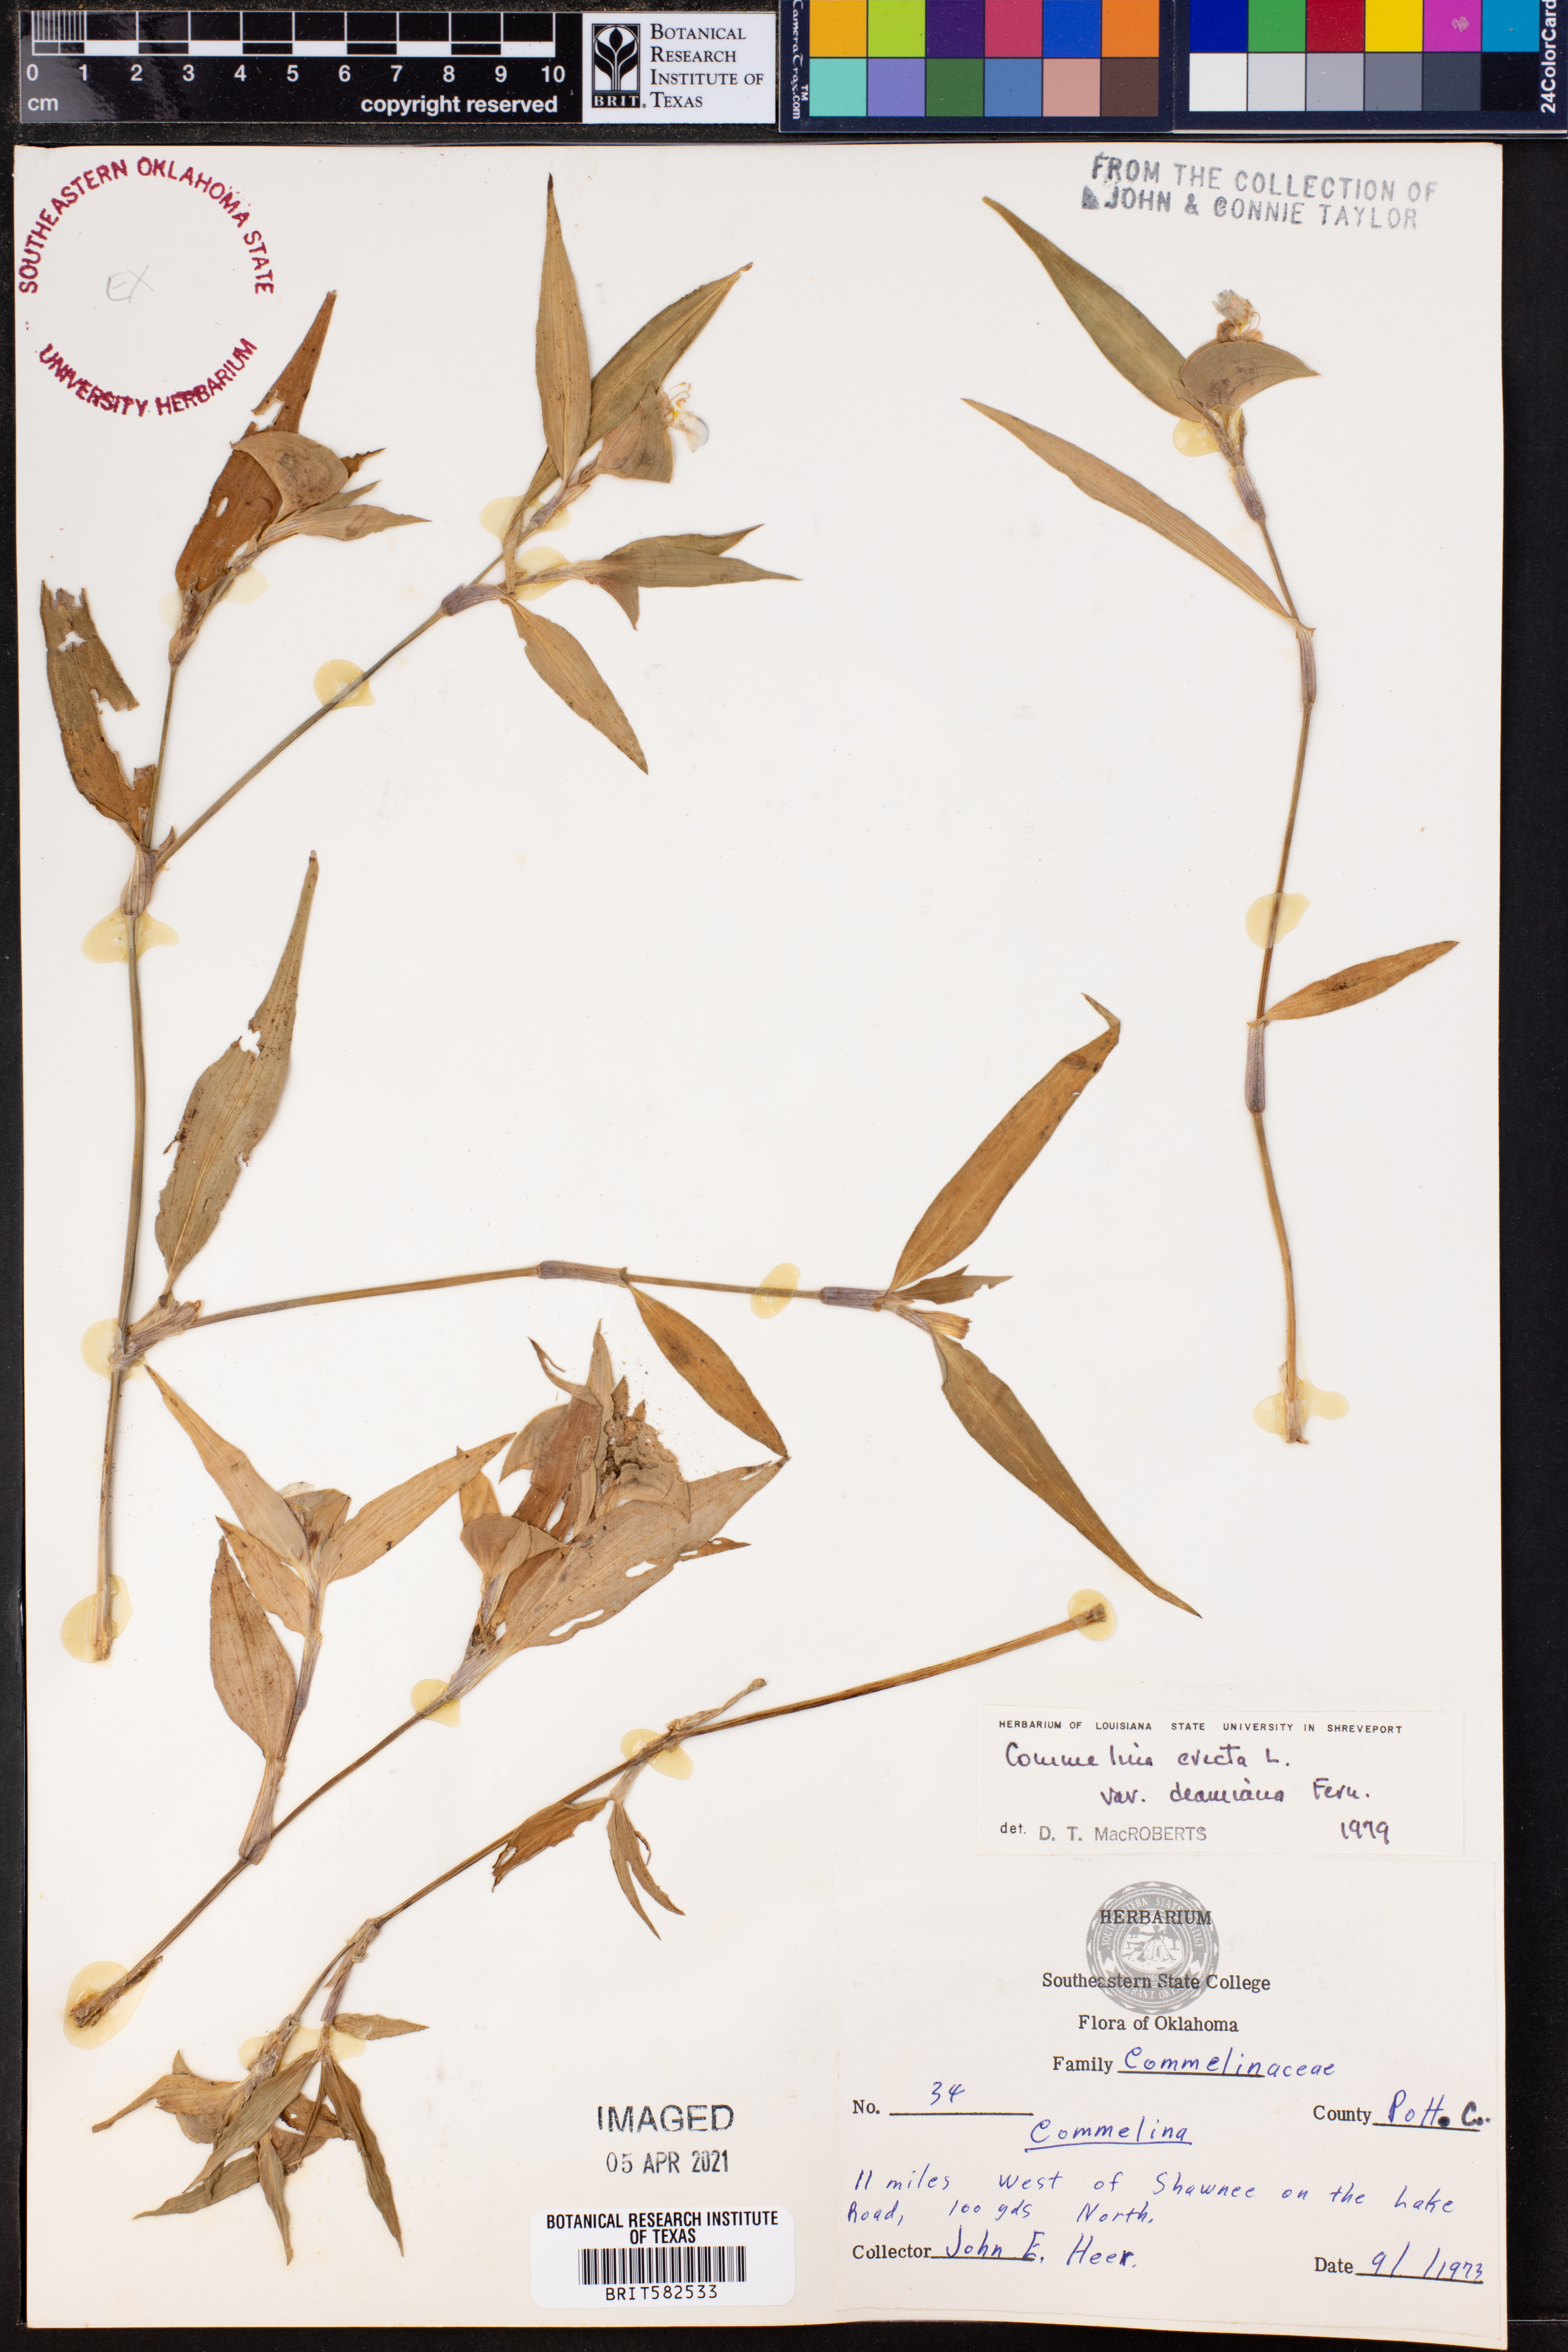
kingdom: Plantae
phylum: Tracheophyta
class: Liliopsida
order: Commelinales
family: Commelinaceae
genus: Commelina
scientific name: Commelina erecta
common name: Blousel blommetjie
